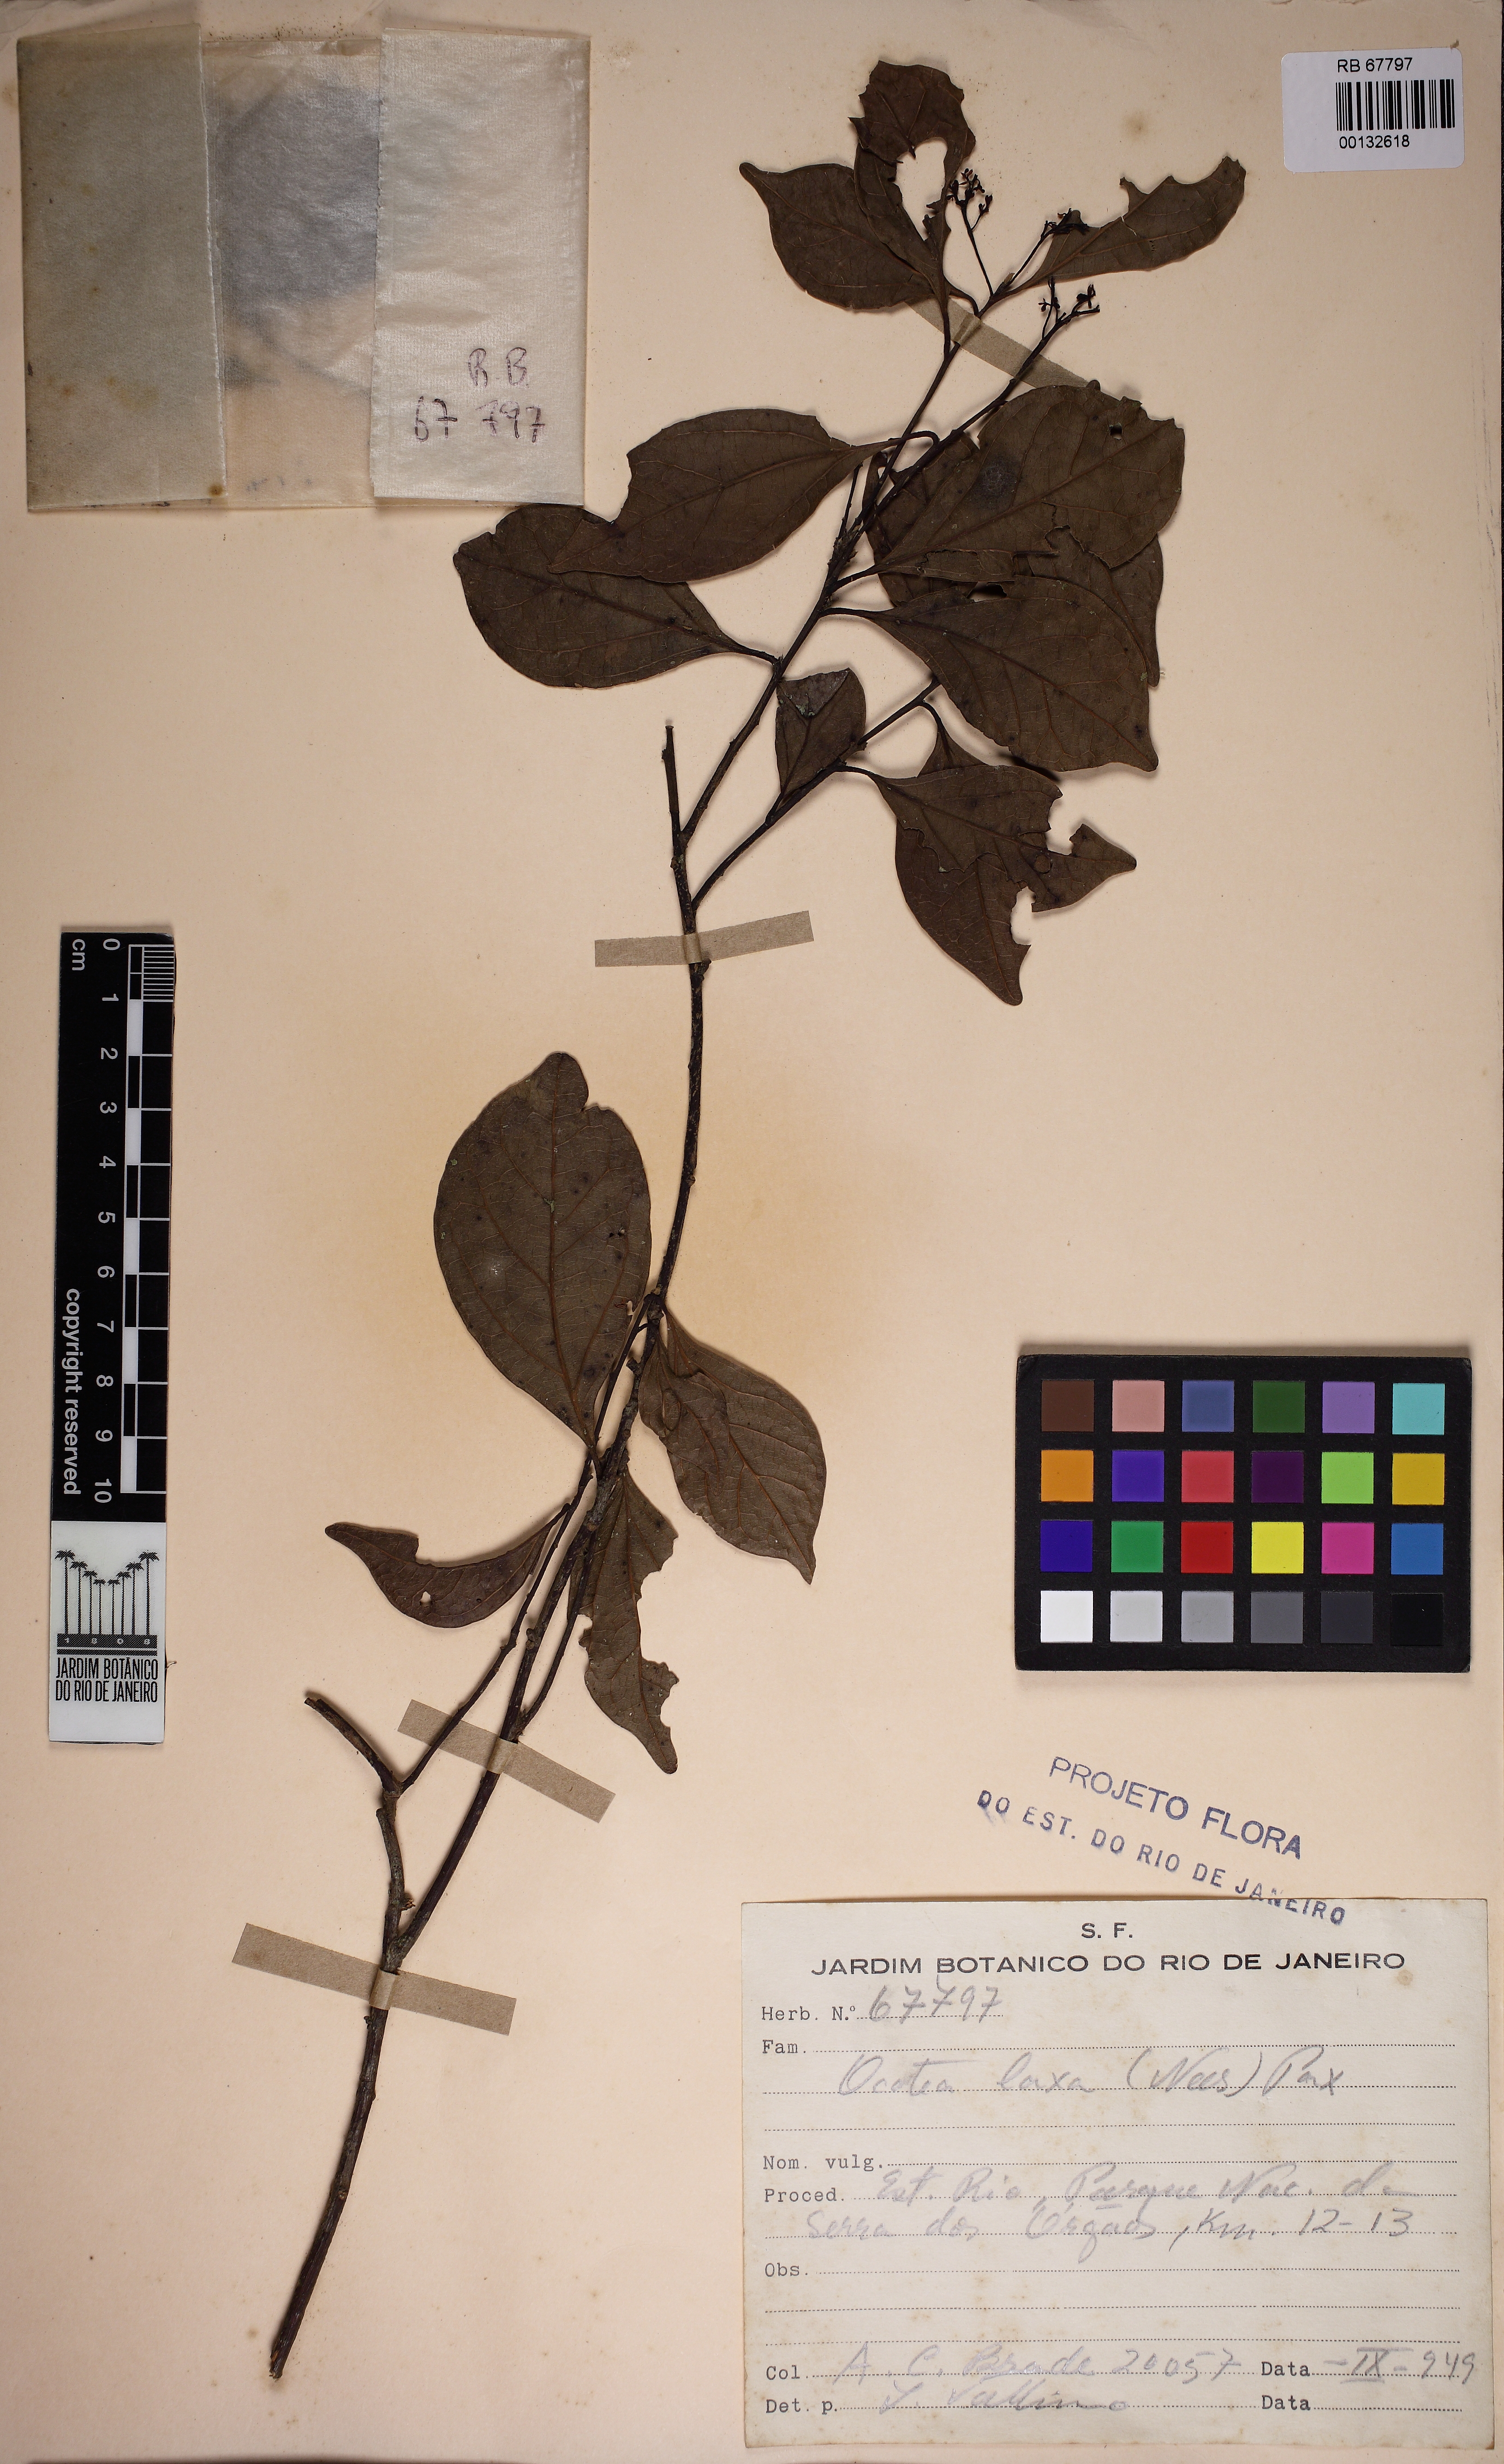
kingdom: Plantae
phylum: Tracheophyta
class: Magnoliopsida
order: Laurales
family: Lauraceae
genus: Ocotea
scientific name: Ocotea laxa
